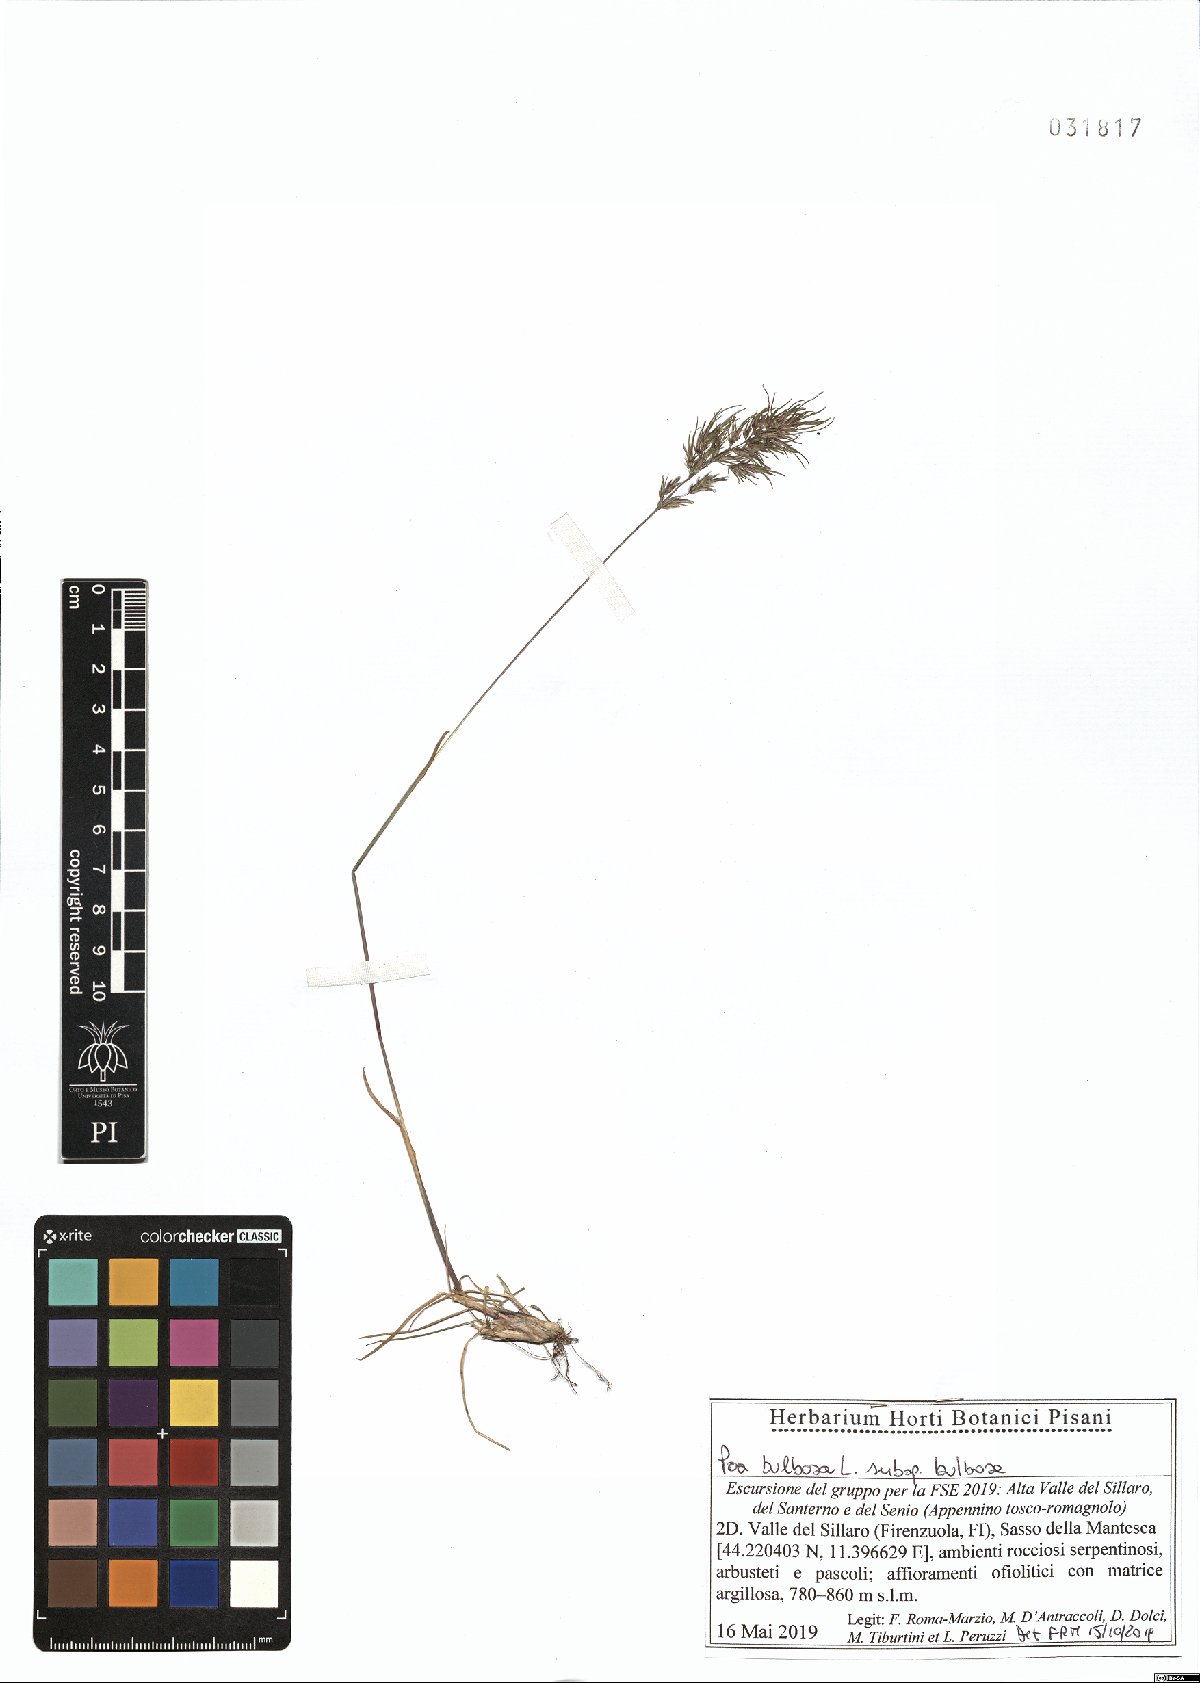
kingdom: Plantae
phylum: Tracheophyta
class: Liliopsida
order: Poales
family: Poaceae
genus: Poa
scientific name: Poa bulbosa
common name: Bulbous bluegrass
